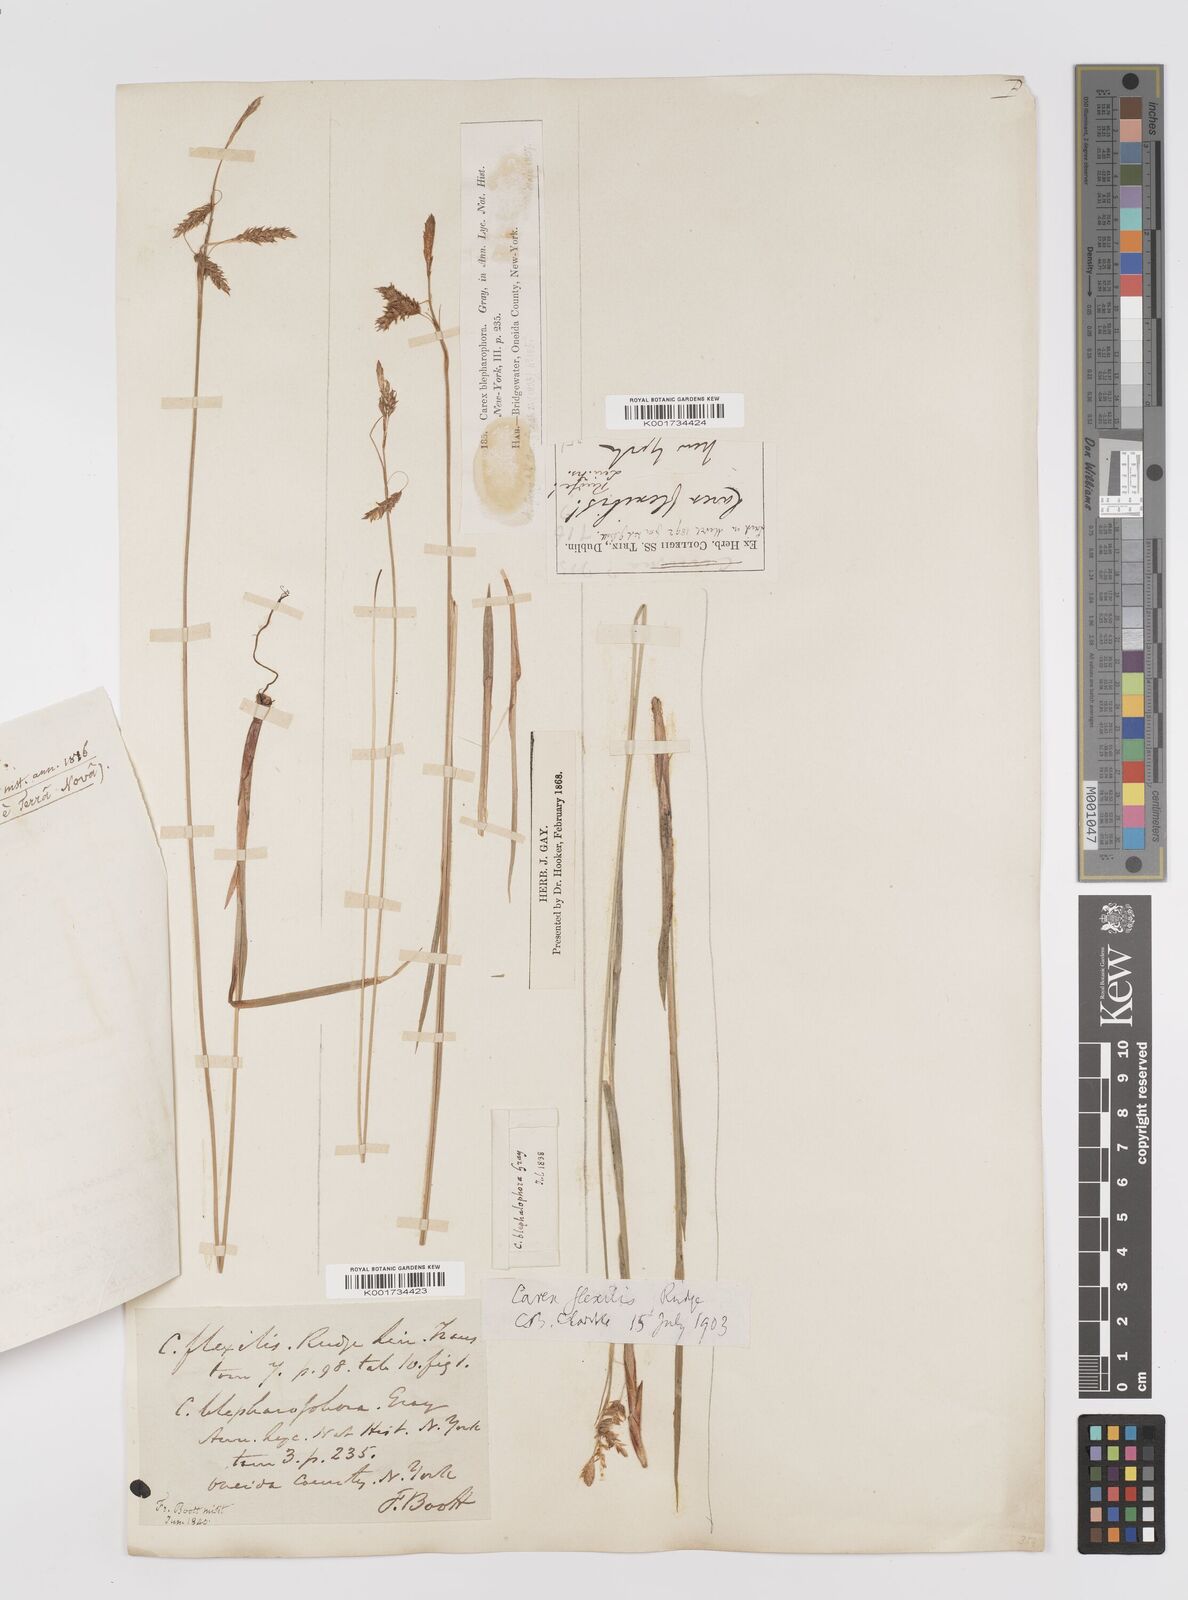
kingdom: Plantae
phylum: Tracheophyta
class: Liliopsida
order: Poales
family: Cyperaceae
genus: Carex
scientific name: Carex castanea
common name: Chestnut sedge
